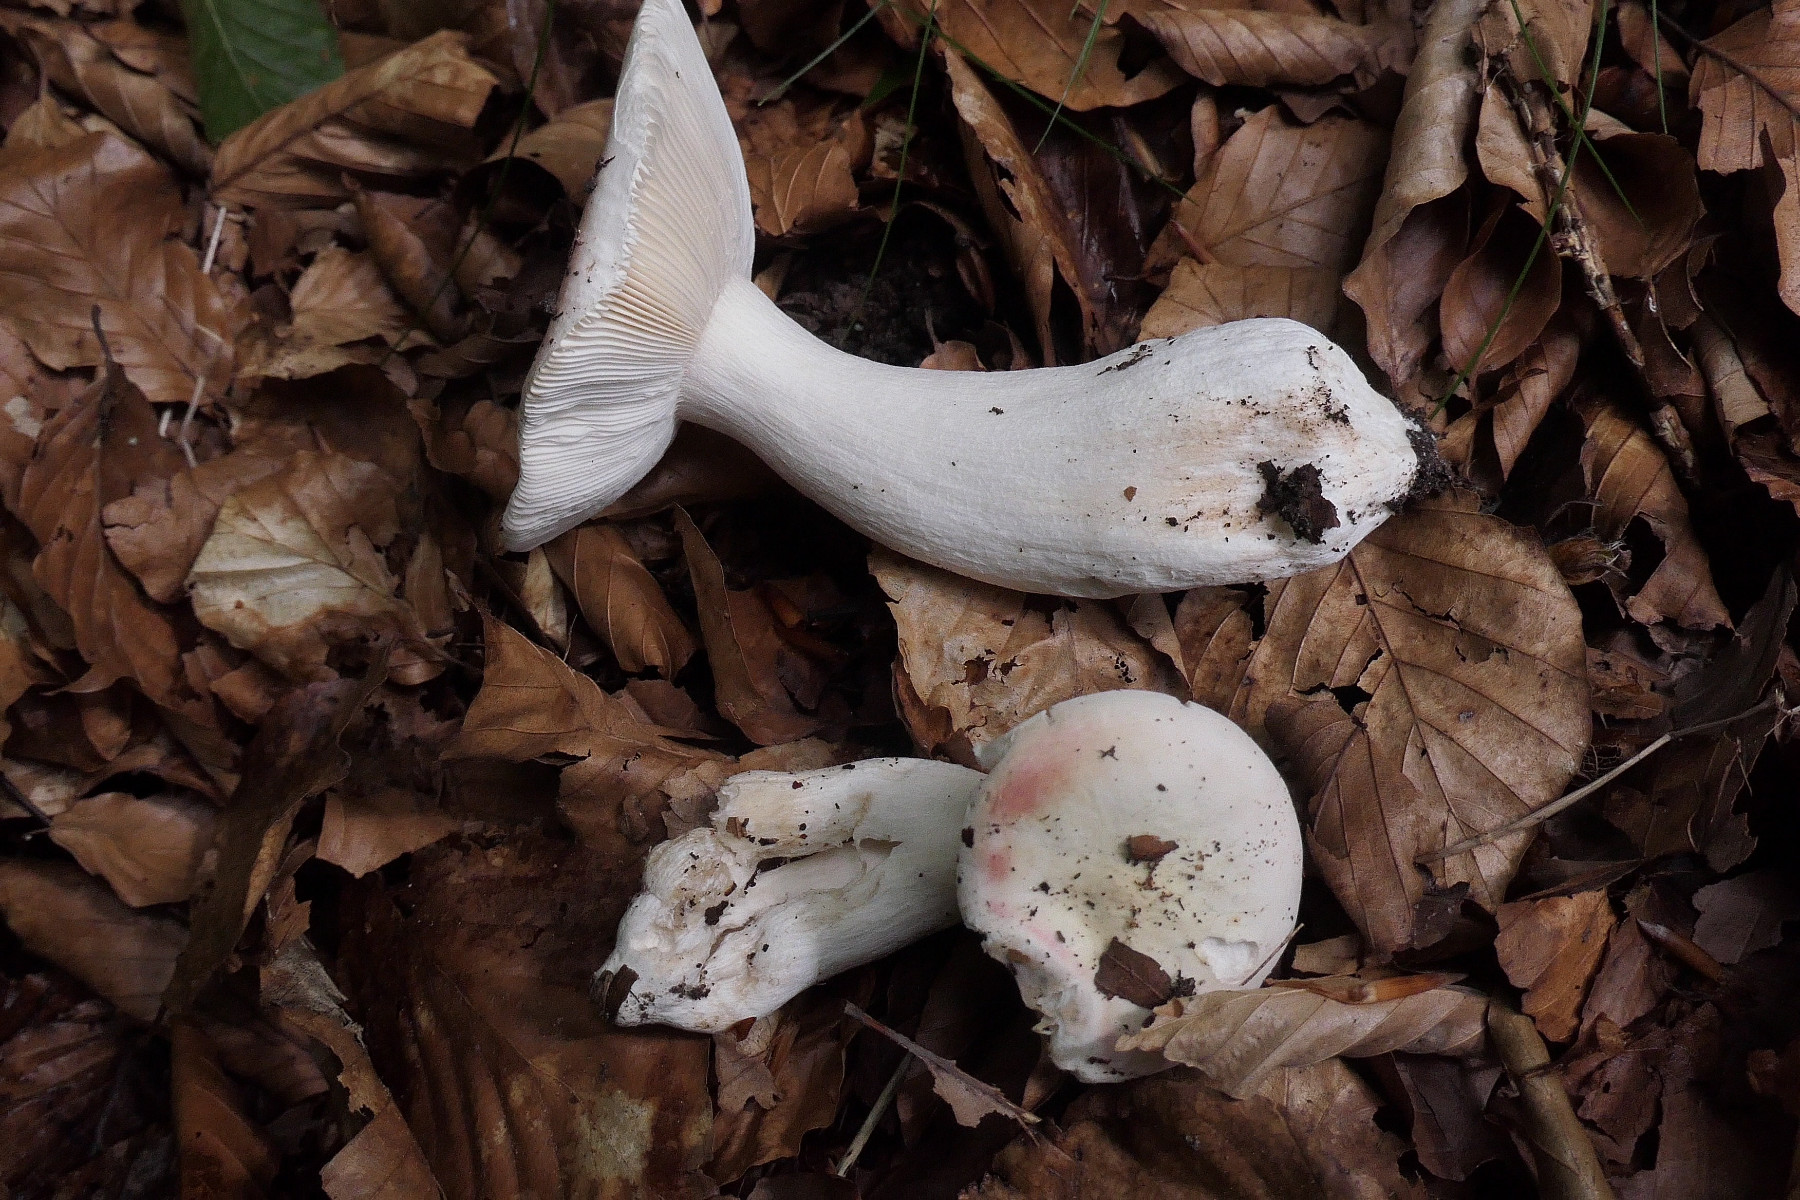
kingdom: Fungi
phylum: Basidiomycota
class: Agaricomycetes
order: Russulales
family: Russulaceae
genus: Russula
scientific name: Russula
